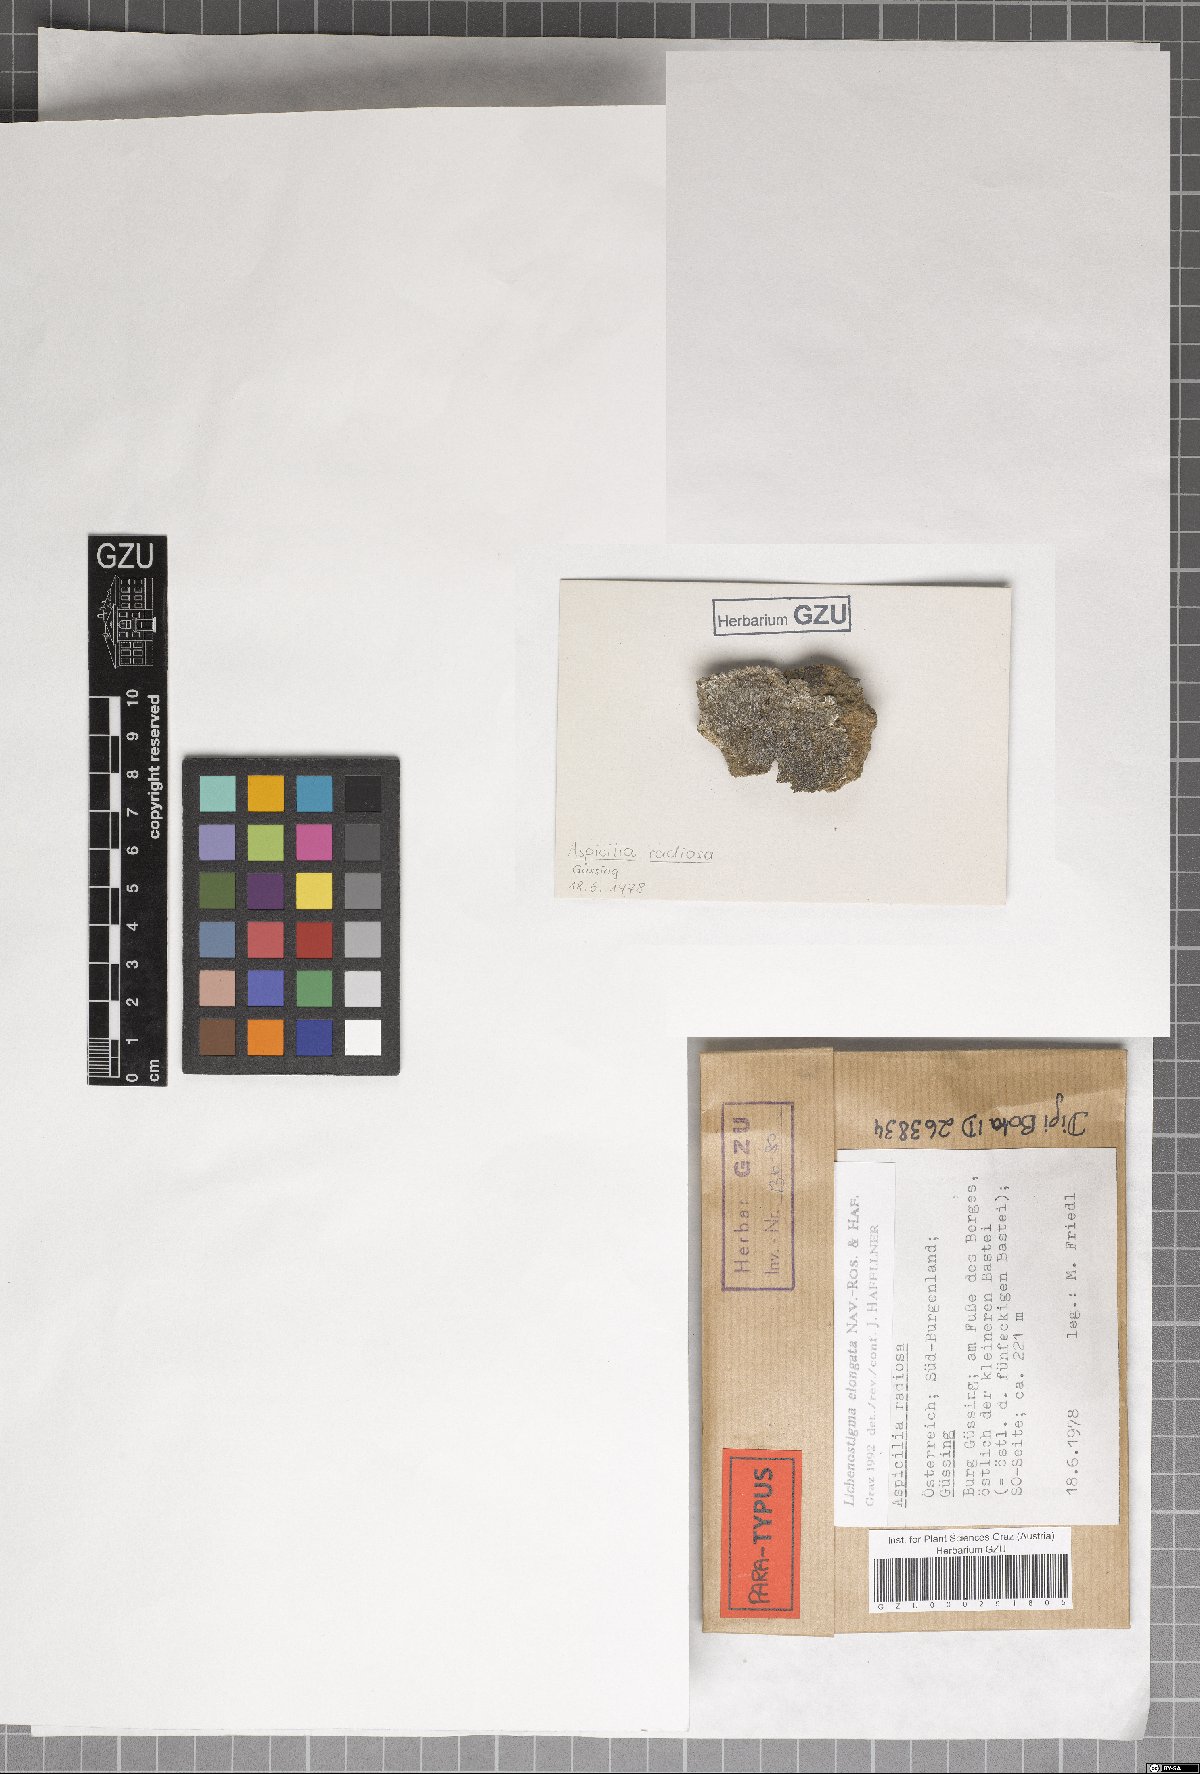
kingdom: Fungi
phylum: Ascomycota
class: Arthoniomycetes
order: Lichenostigmatales
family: Phaeococcomycetaceae
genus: Lichenostigma
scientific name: Lichenostigma elongatum
